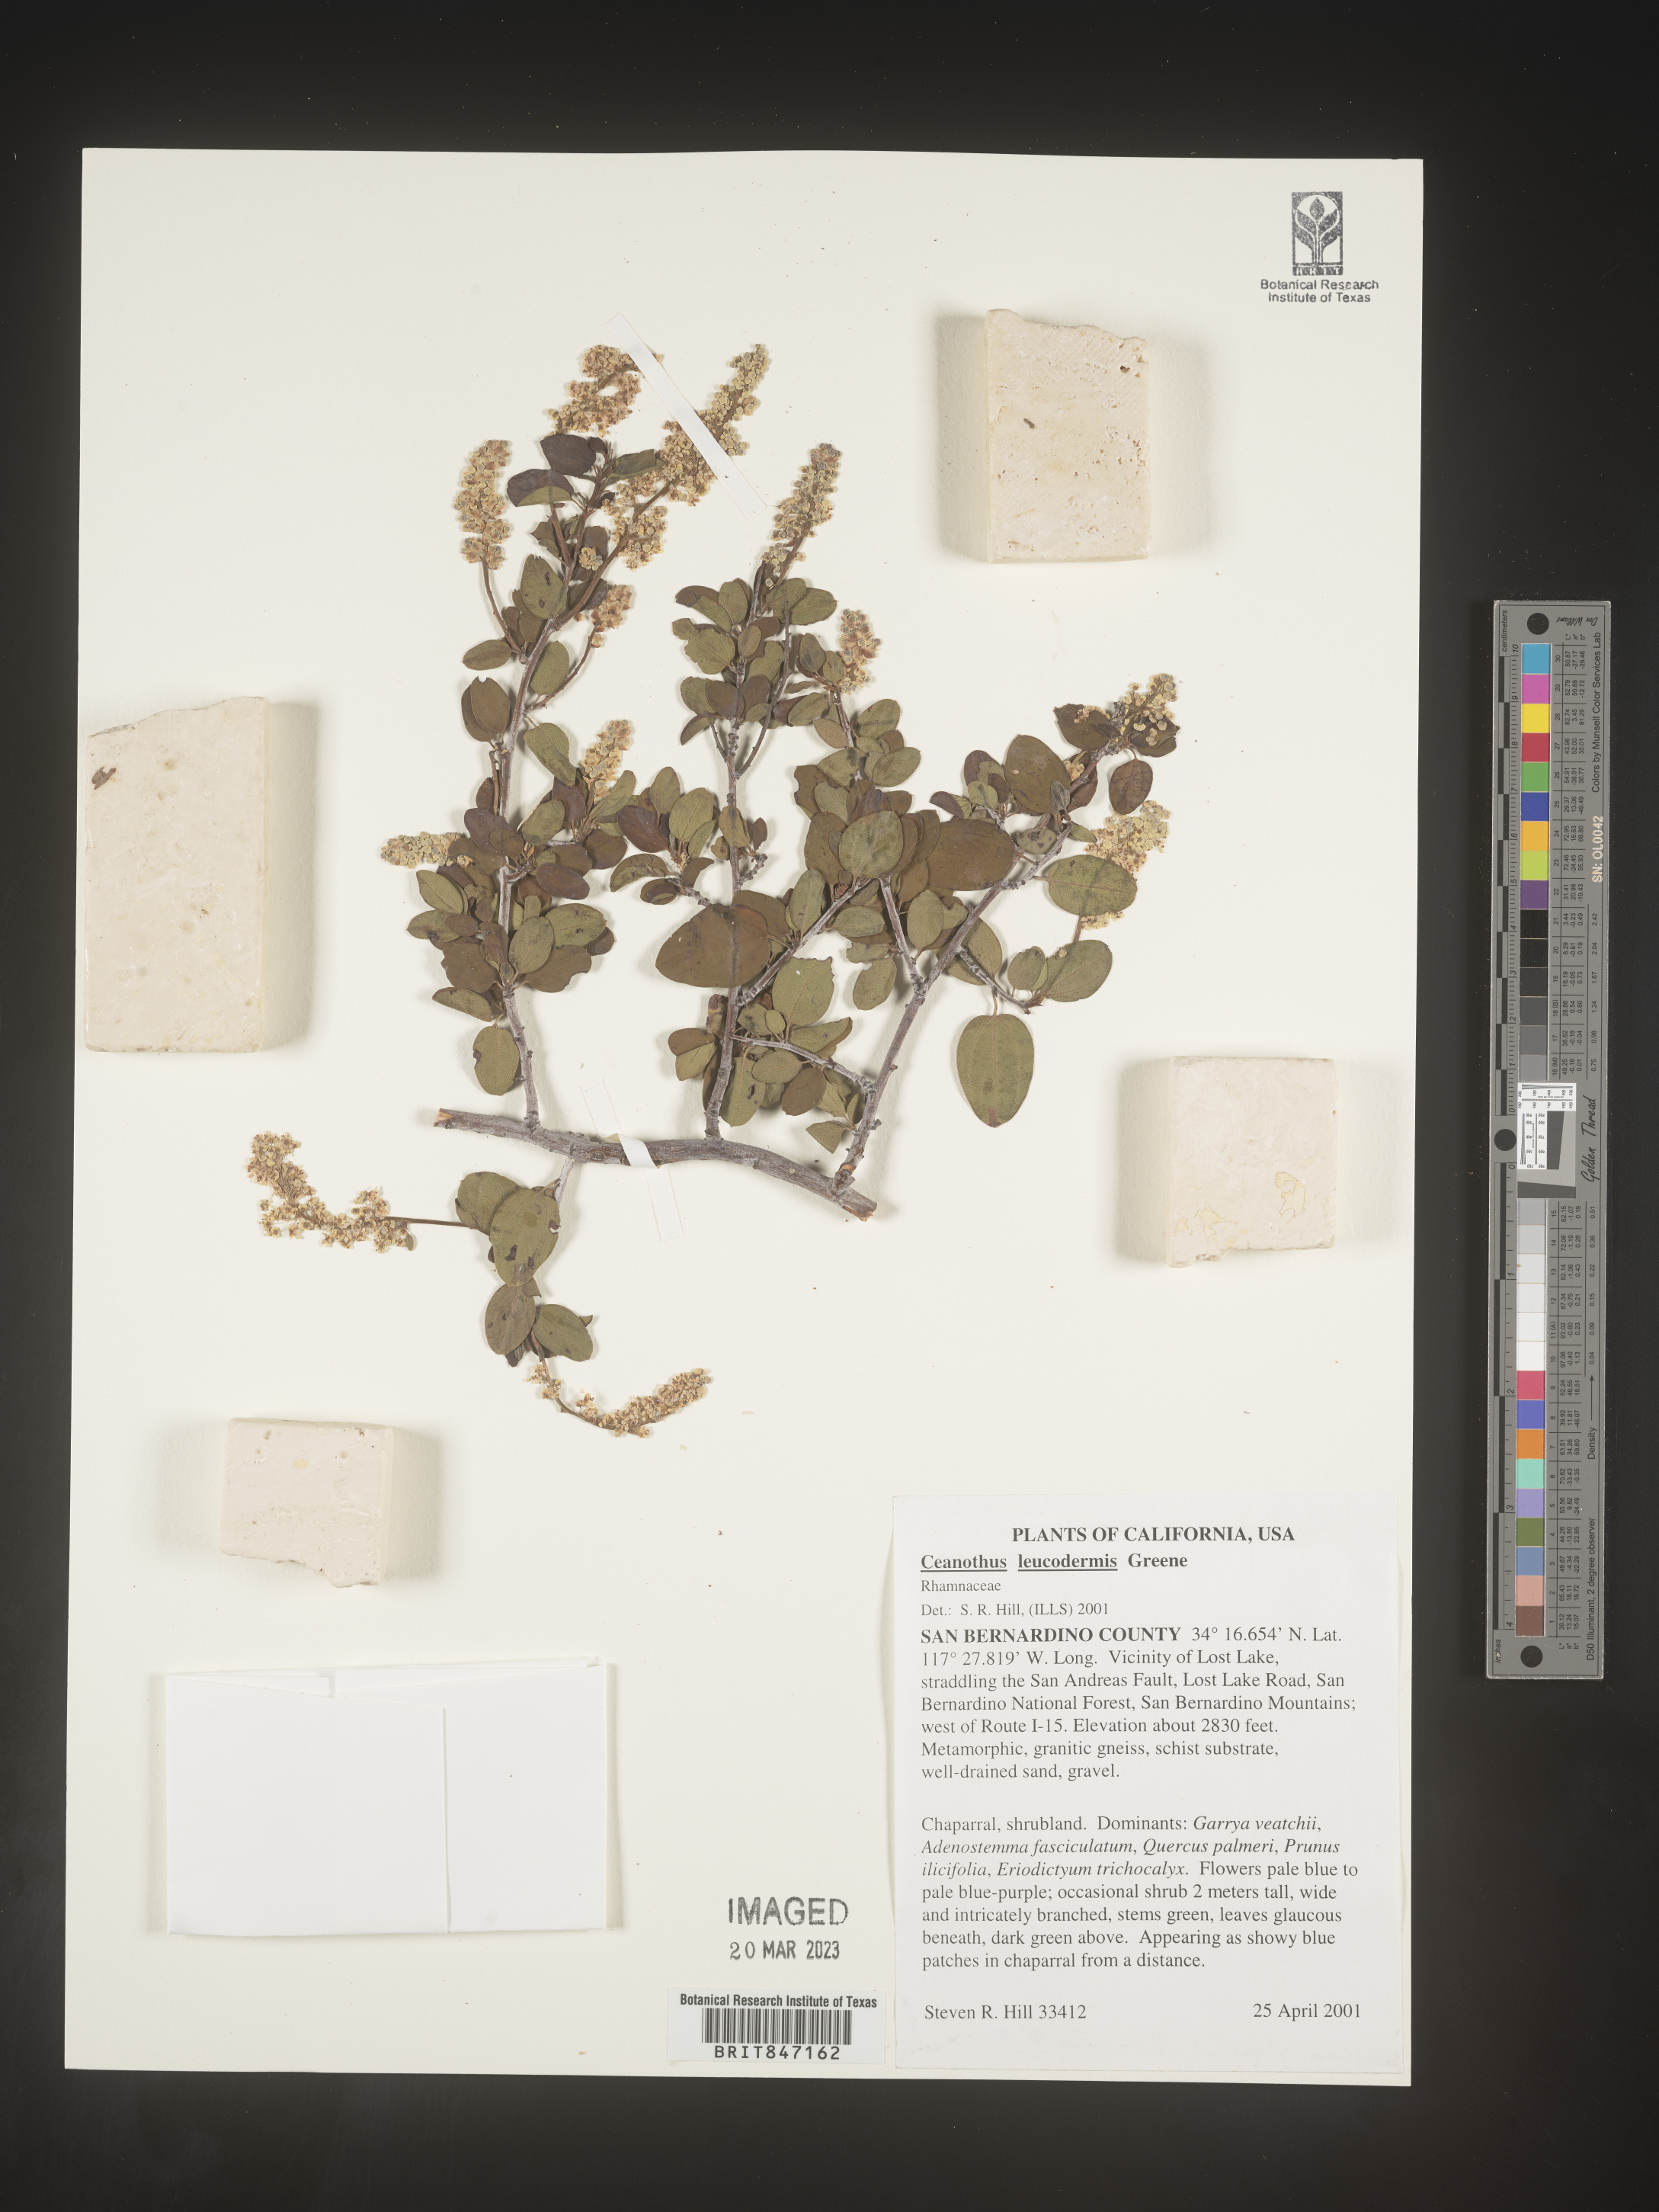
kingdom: Plantae
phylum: Tracheophyta
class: Magnoliopsida
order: Rosales
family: Rhamnaceae
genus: Ceanothus
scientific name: Ceanothus
